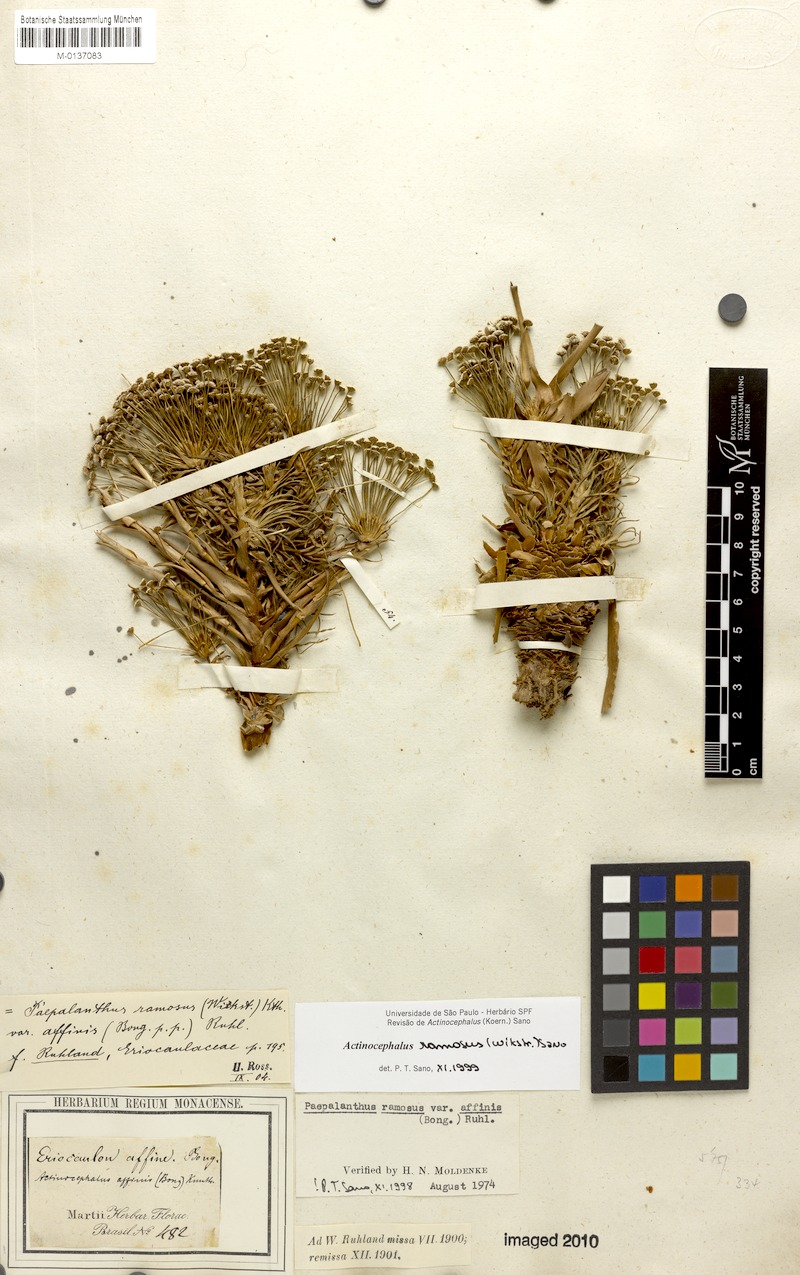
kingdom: Plantae
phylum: Tracheophyta
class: Liliopsida
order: Poales
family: Eriocaulaceae
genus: Paepalanthus
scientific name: Paepalanthus ramosus
